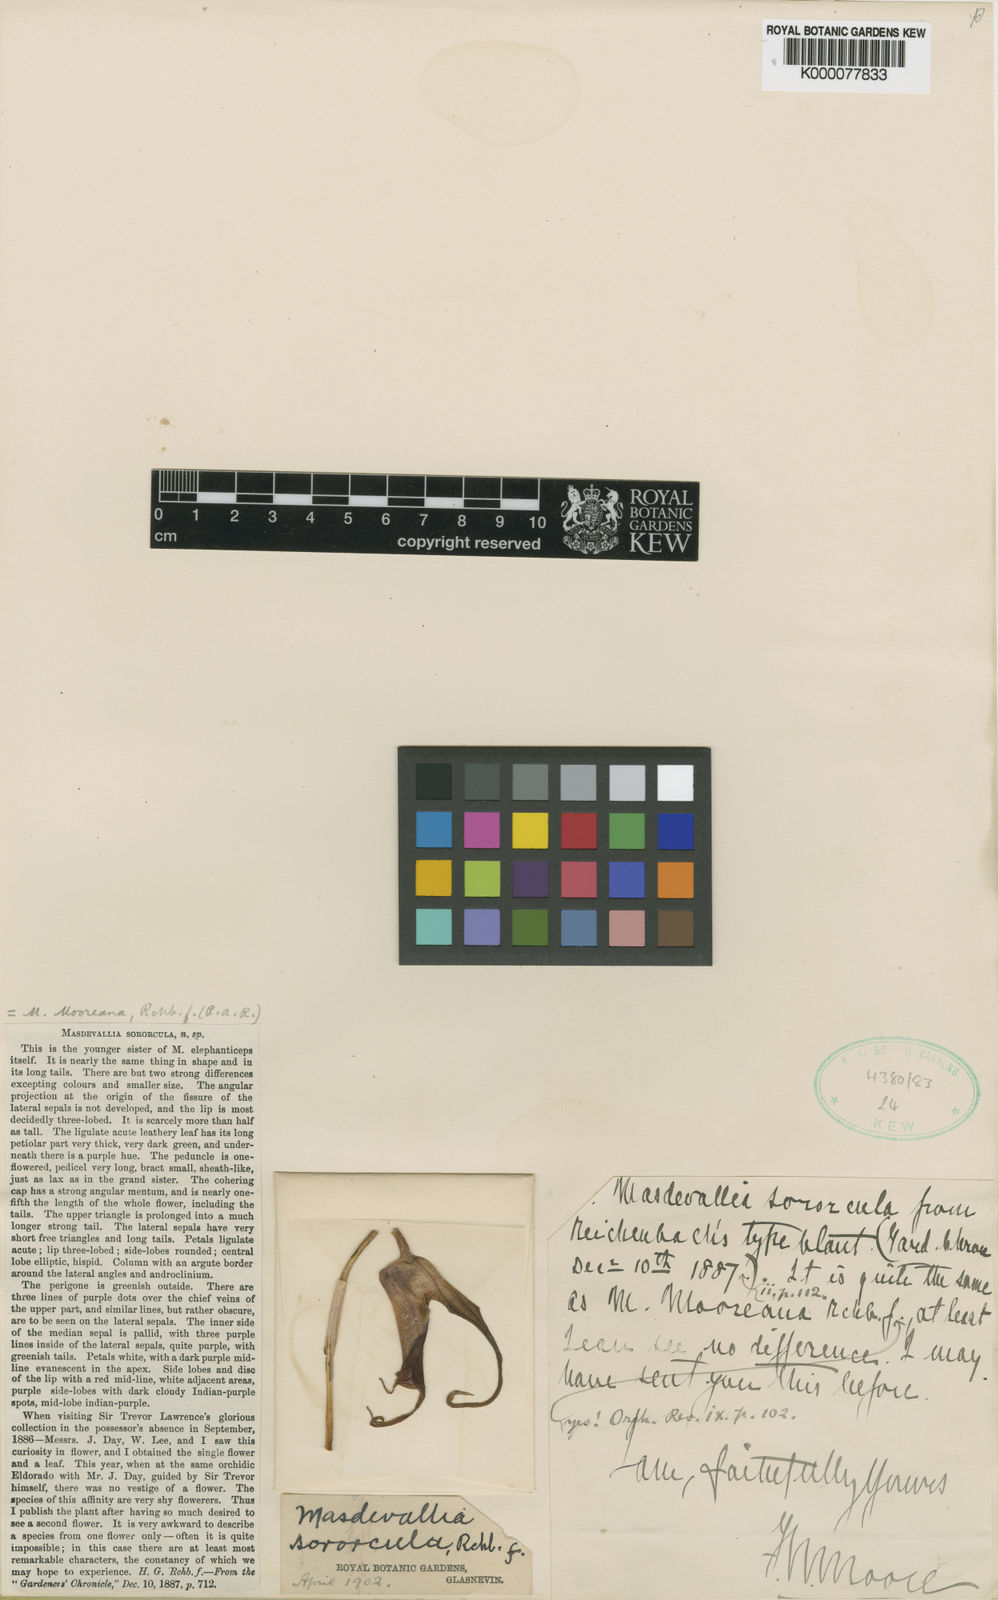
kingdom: Plantae
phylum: Tracheophyta
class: Liliopsida
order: Asparagales
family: Orchidaceae
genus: Masdevallia
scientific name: Masdevallia mooreana
